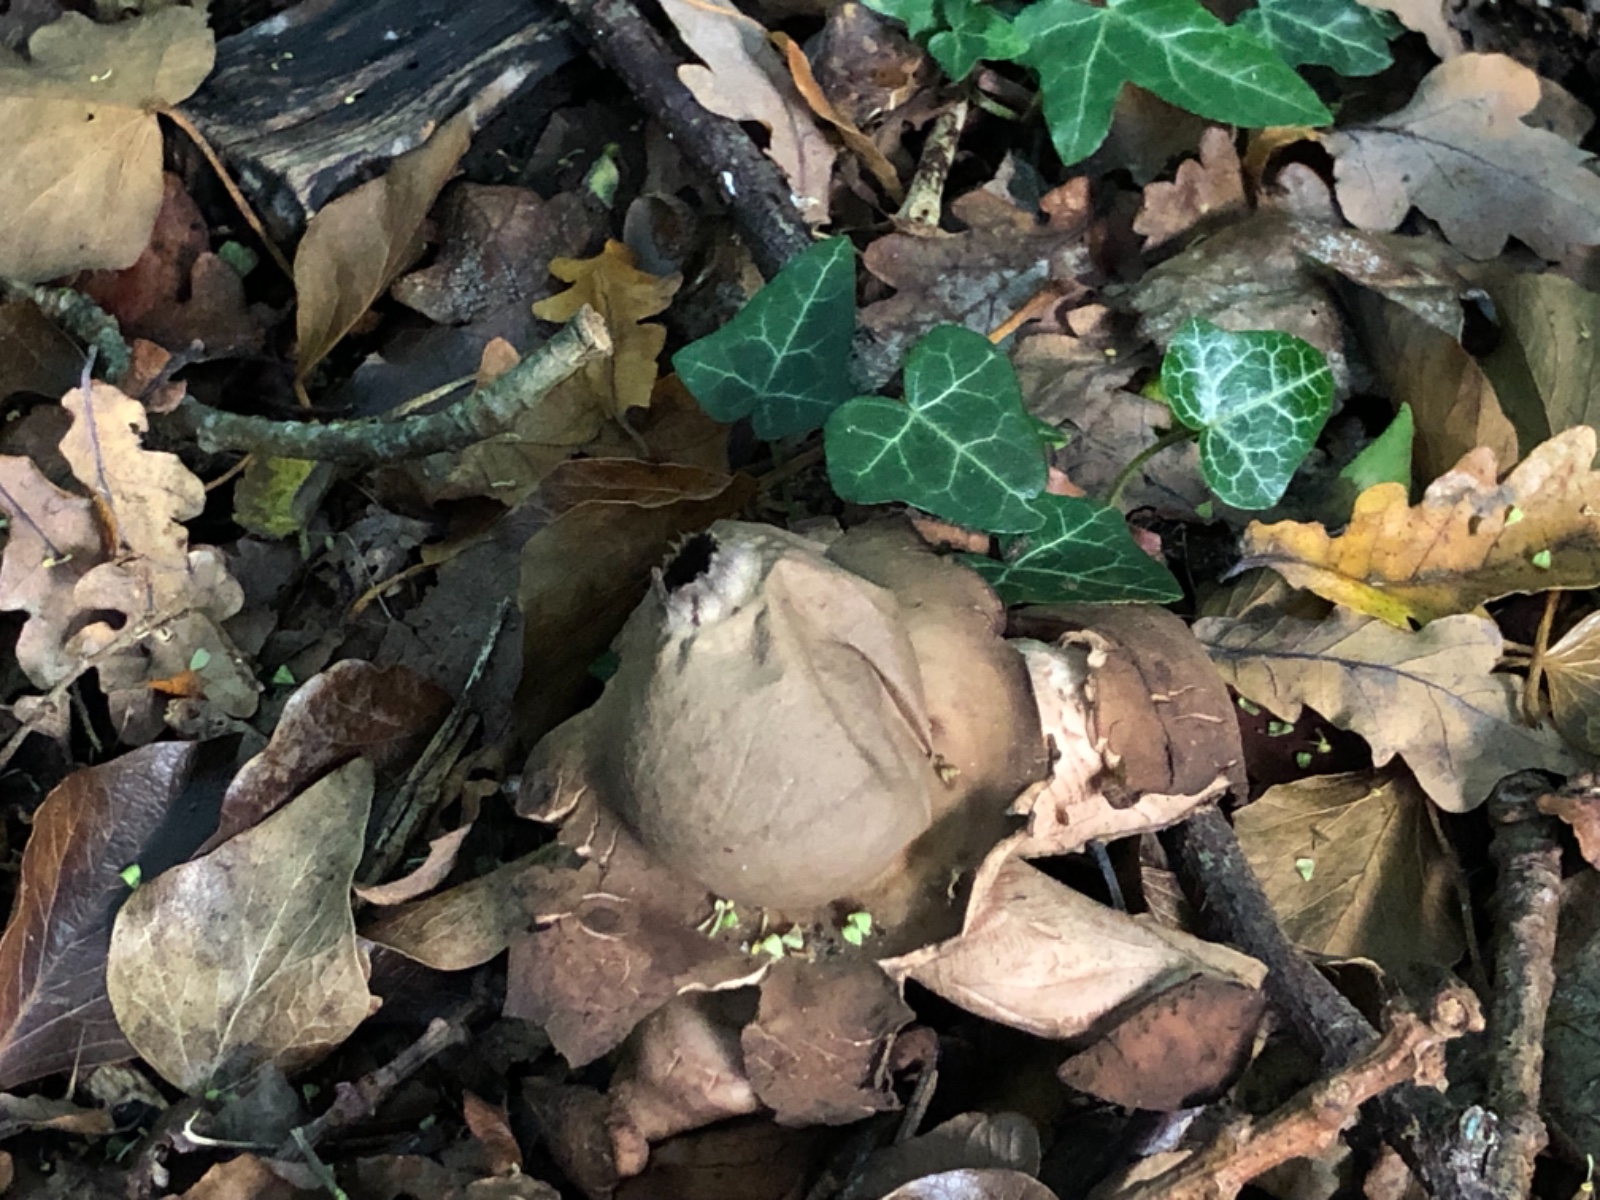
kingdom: Fungi
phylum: Basidiomycota
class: Agaricomycetes
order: Geastrales
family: Geastraceae
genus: Geastrum
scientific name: Geastrum michelianum
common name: kødet stjernebold
